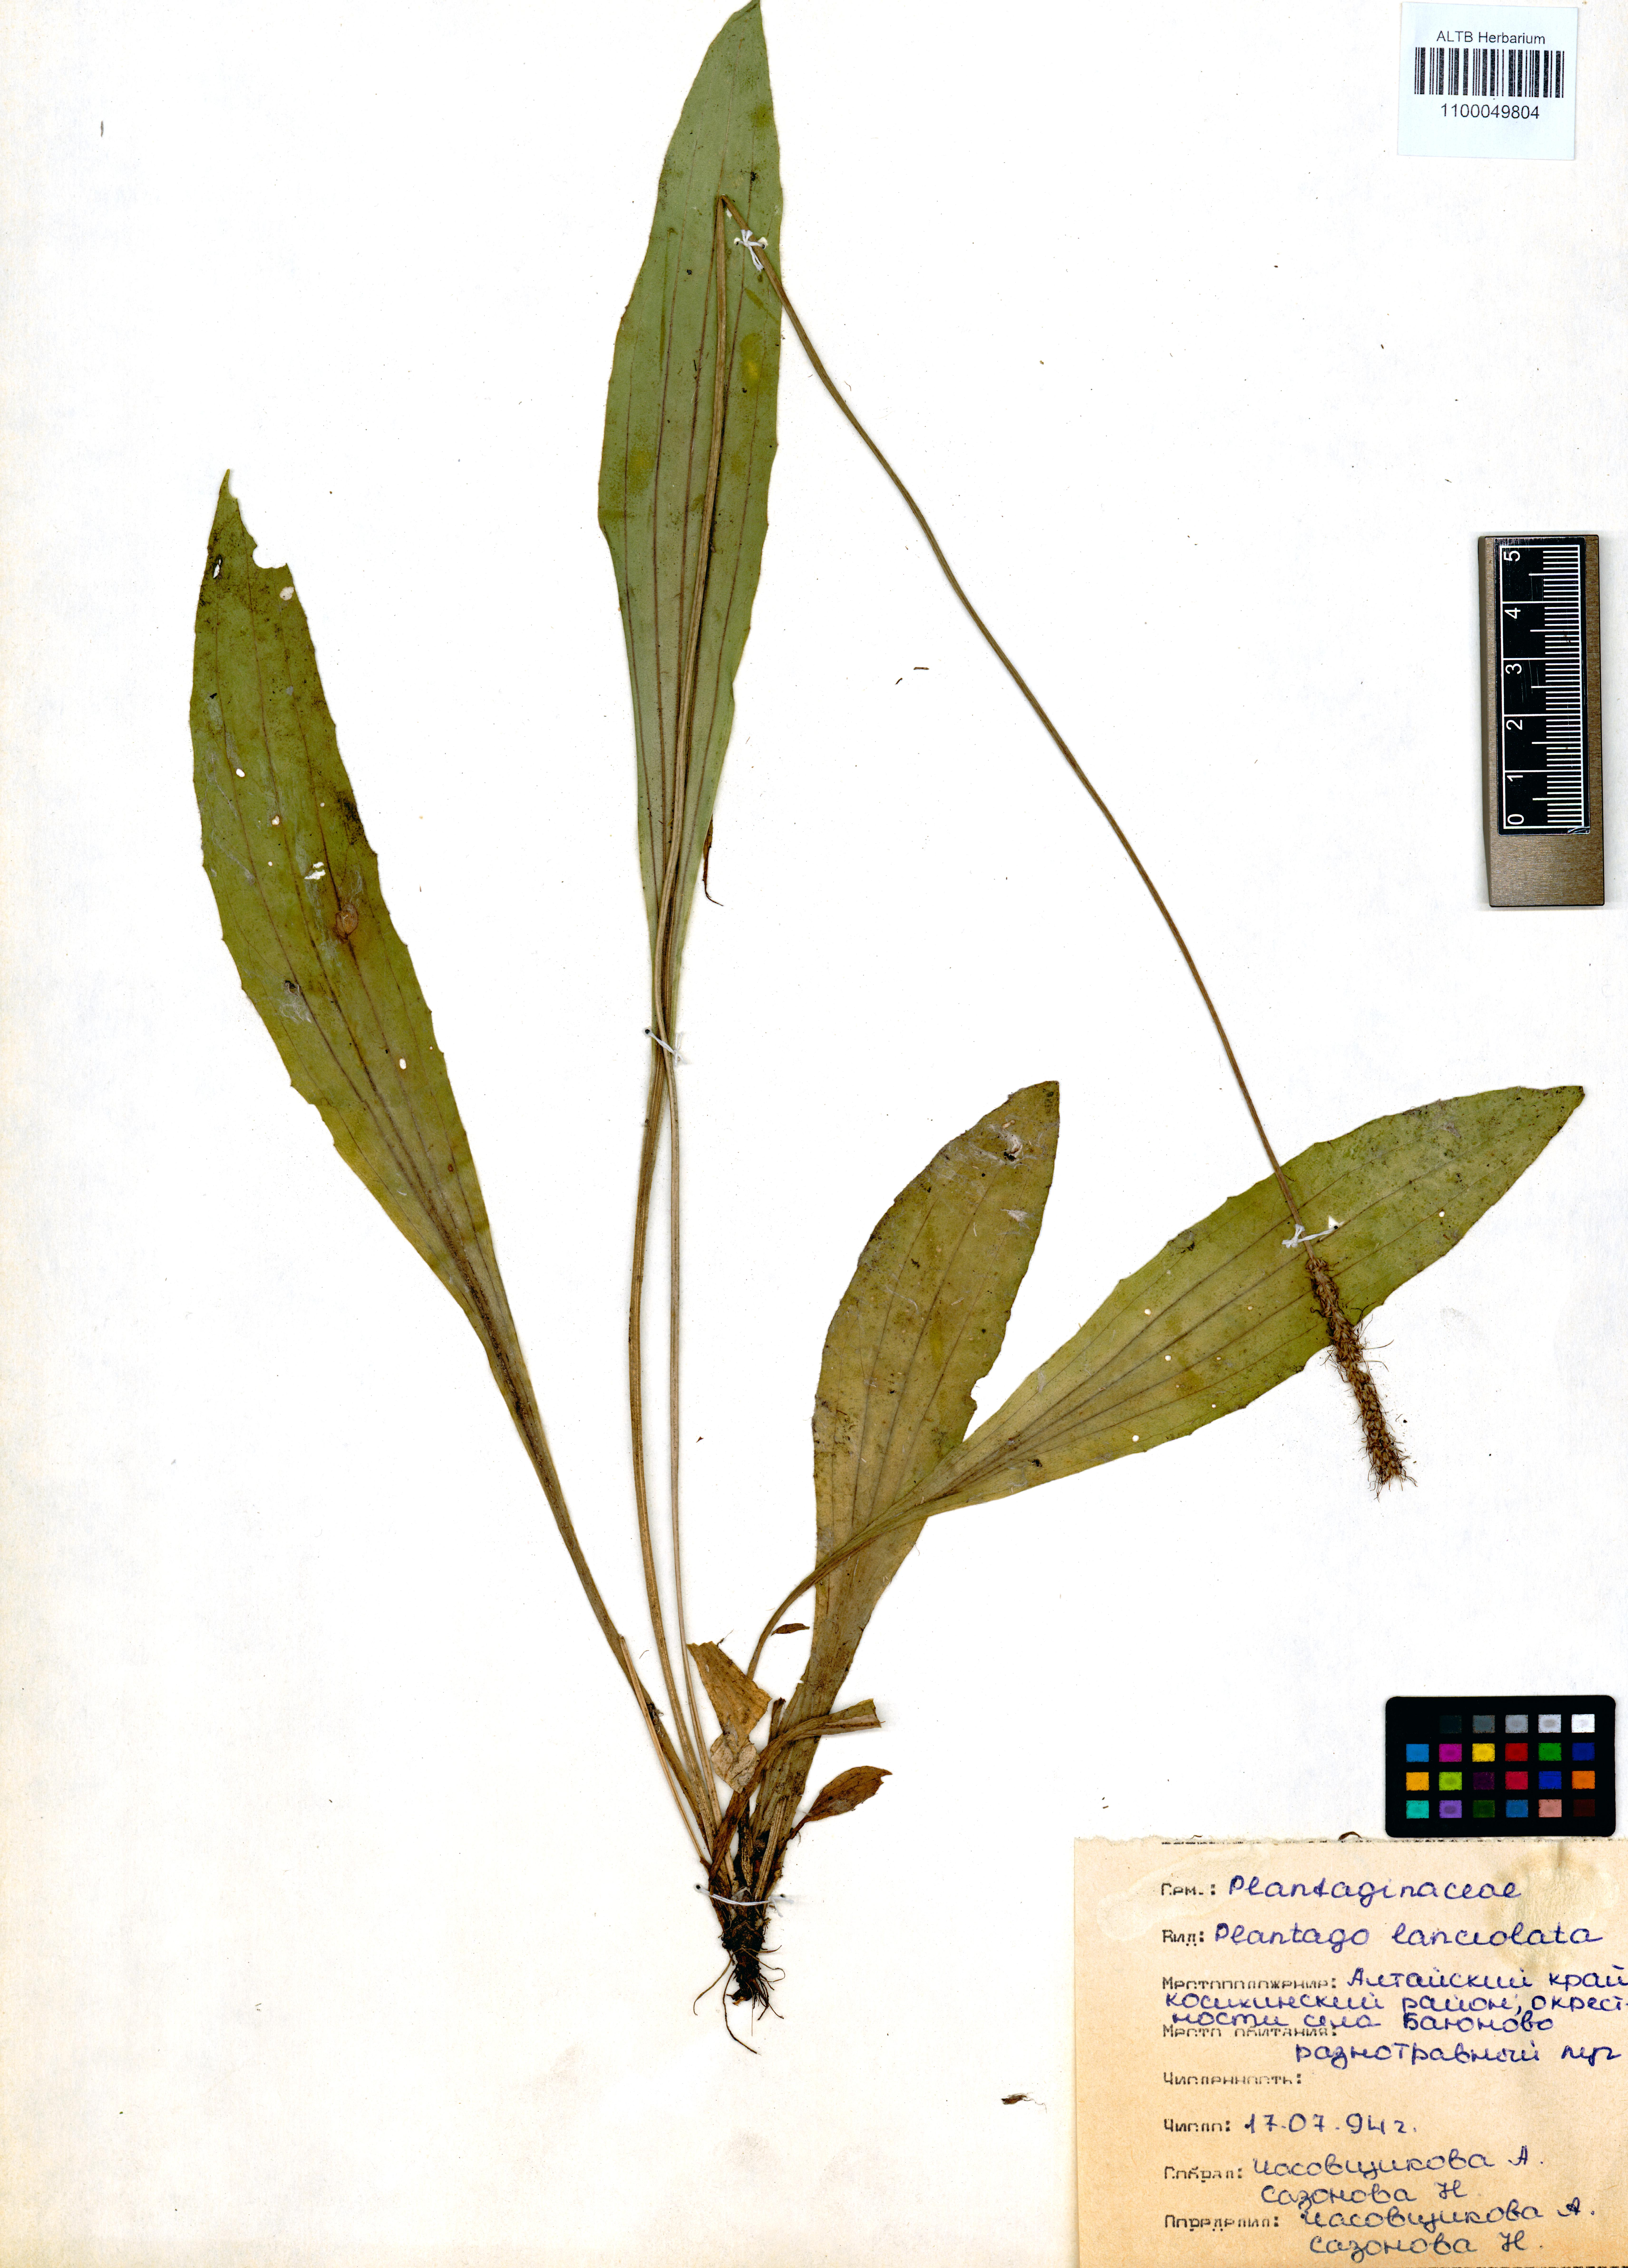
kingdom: Plantae
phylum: Tracheophyta
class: Magnoliopsida
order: Lamiales
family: Plantaginaceae
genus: Plantago
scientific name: Plantago lanceolata
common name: Ribwort plantain
